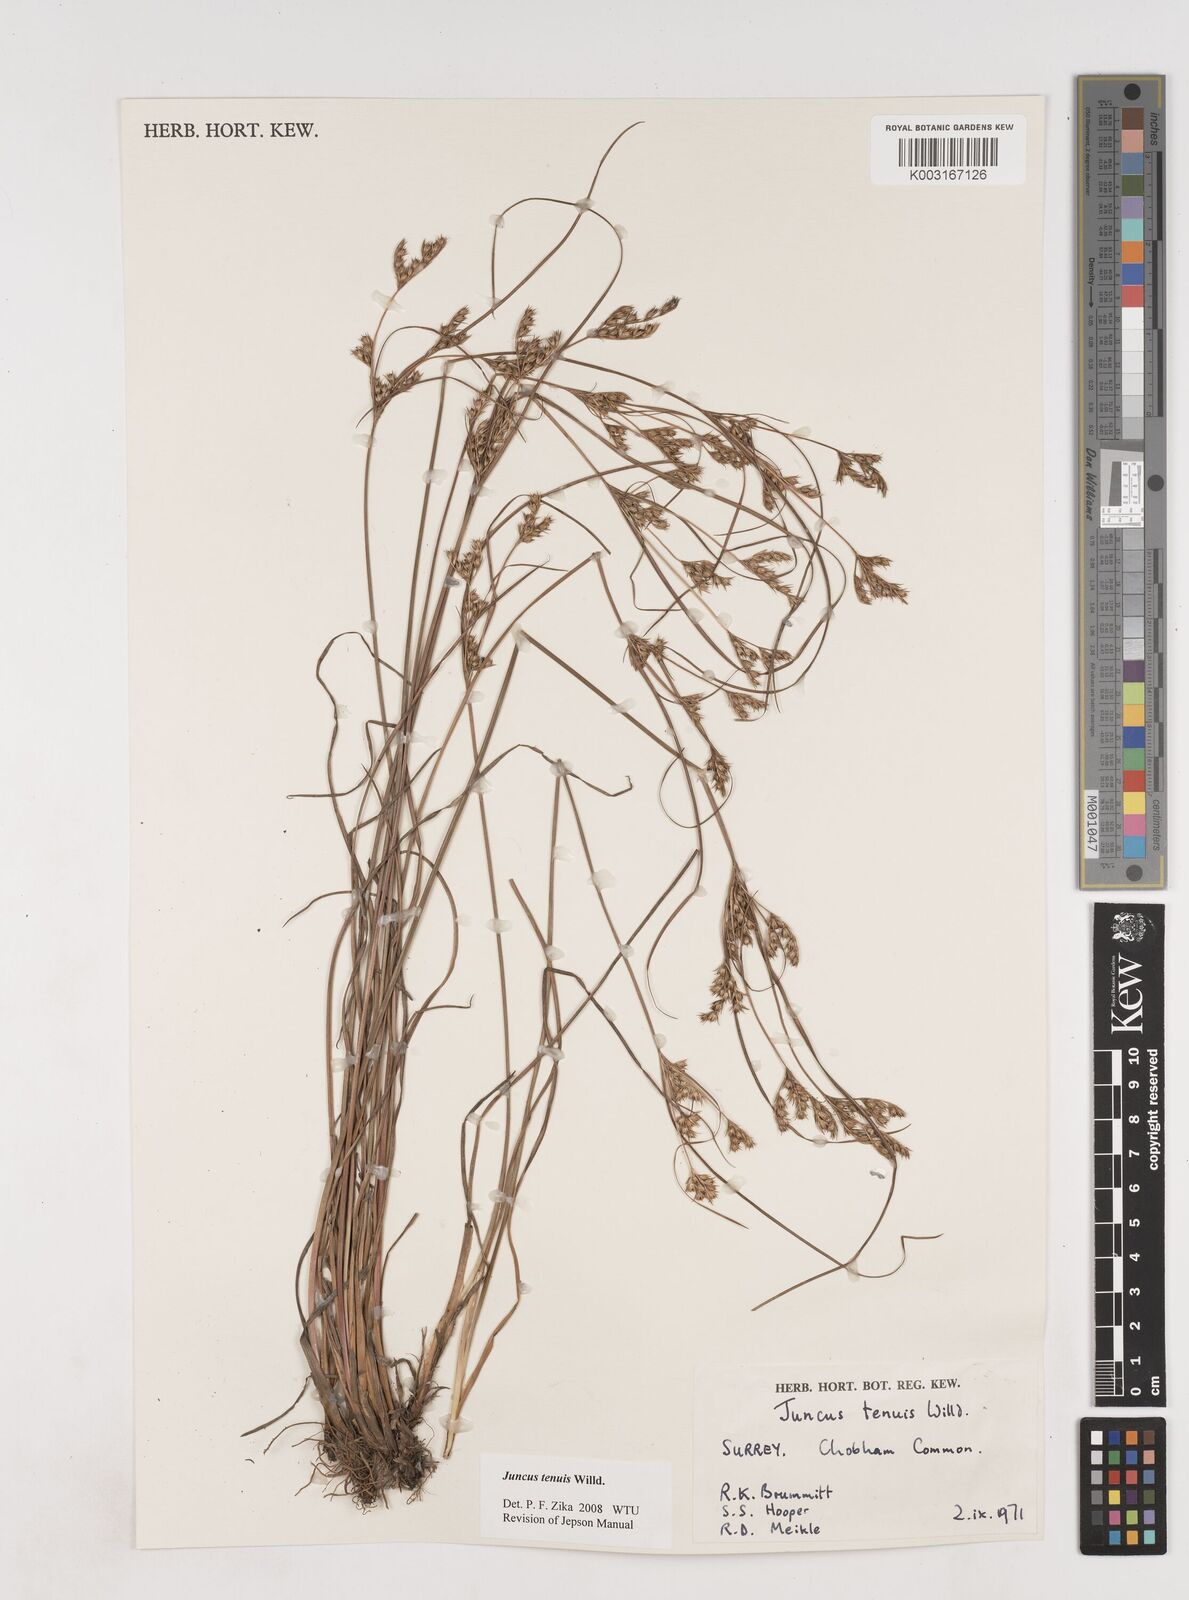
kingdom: Plantae
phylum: Tracheophyta
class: Liliopsida
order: Poales
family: Juncaceae
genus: Juncus
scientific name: Juncus tenuis
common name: Slender rush
